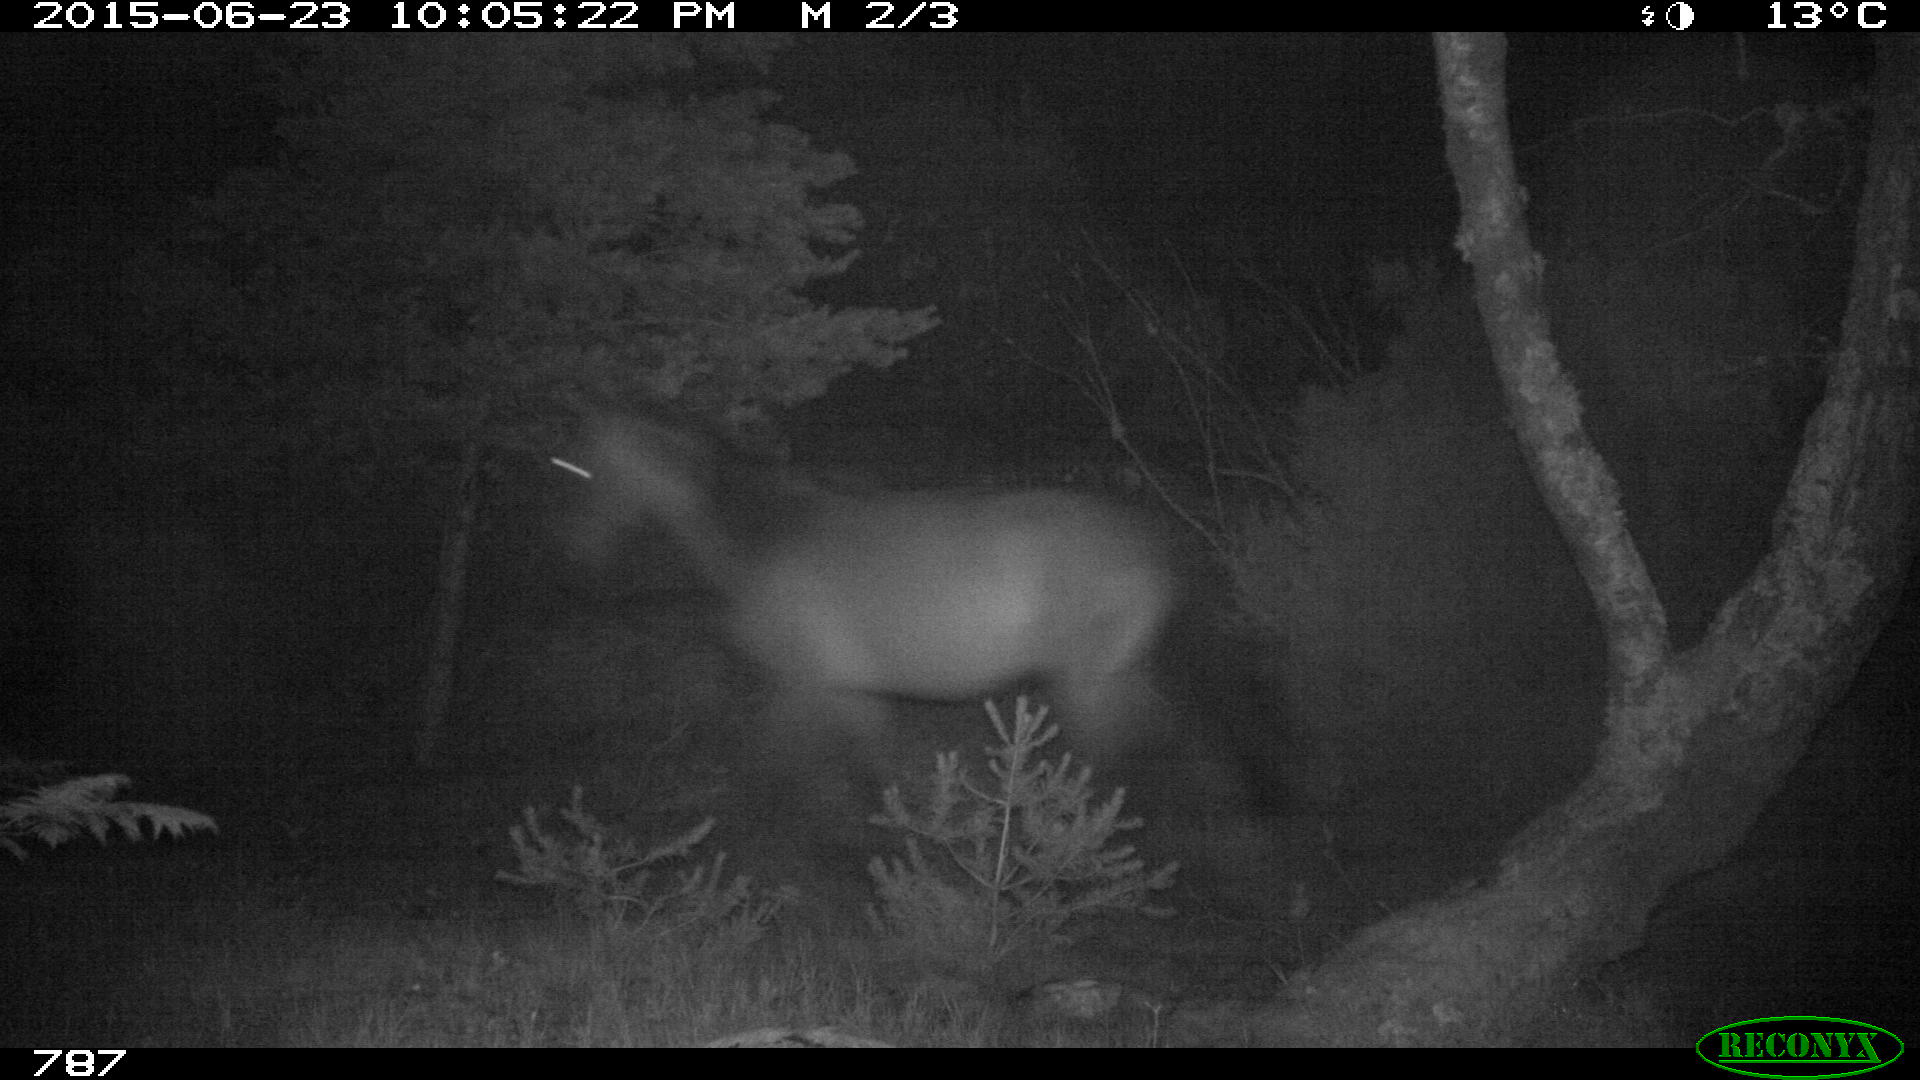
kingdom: Animalia
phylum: Chordata
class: Mammalia
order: Perissodactyla
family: Equidae
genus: Equus
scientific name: Equus caballus
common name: Horse
